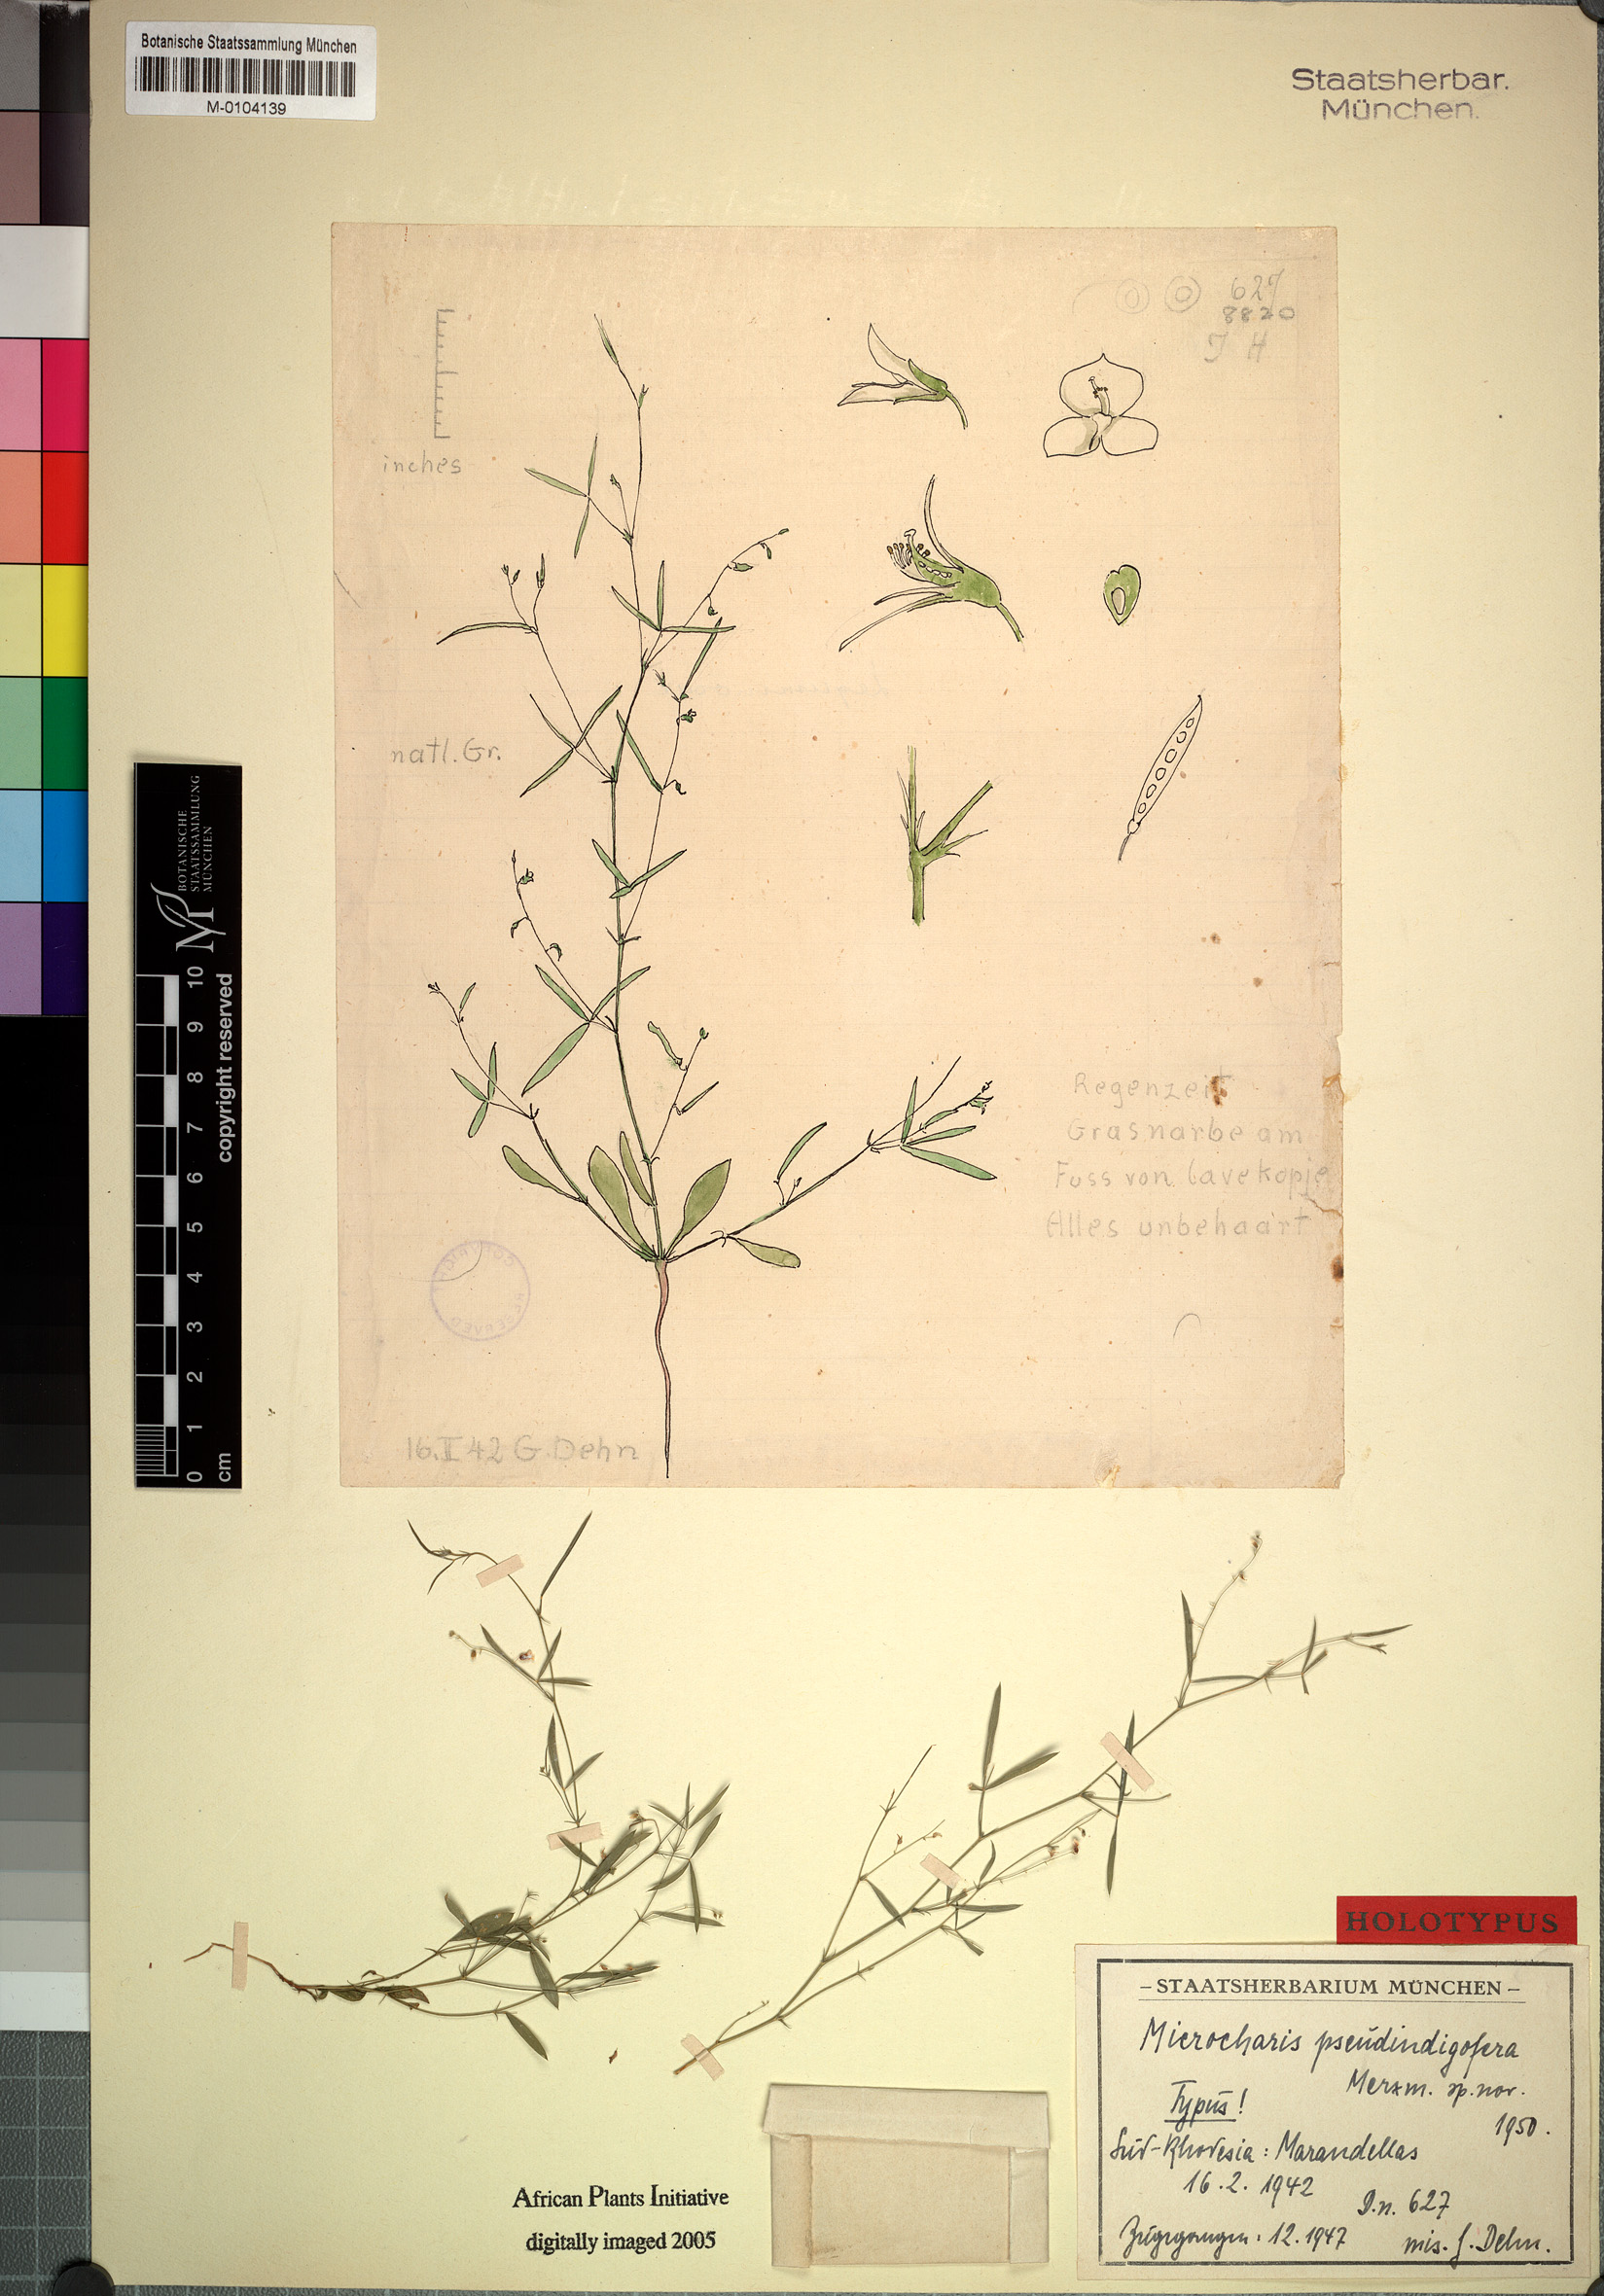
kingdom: Plantae
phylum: Tracheophyta
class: Magnoliopsida
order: Fabales
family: Fabaceae
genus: Microcharis
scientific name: Microcharis galpinii
